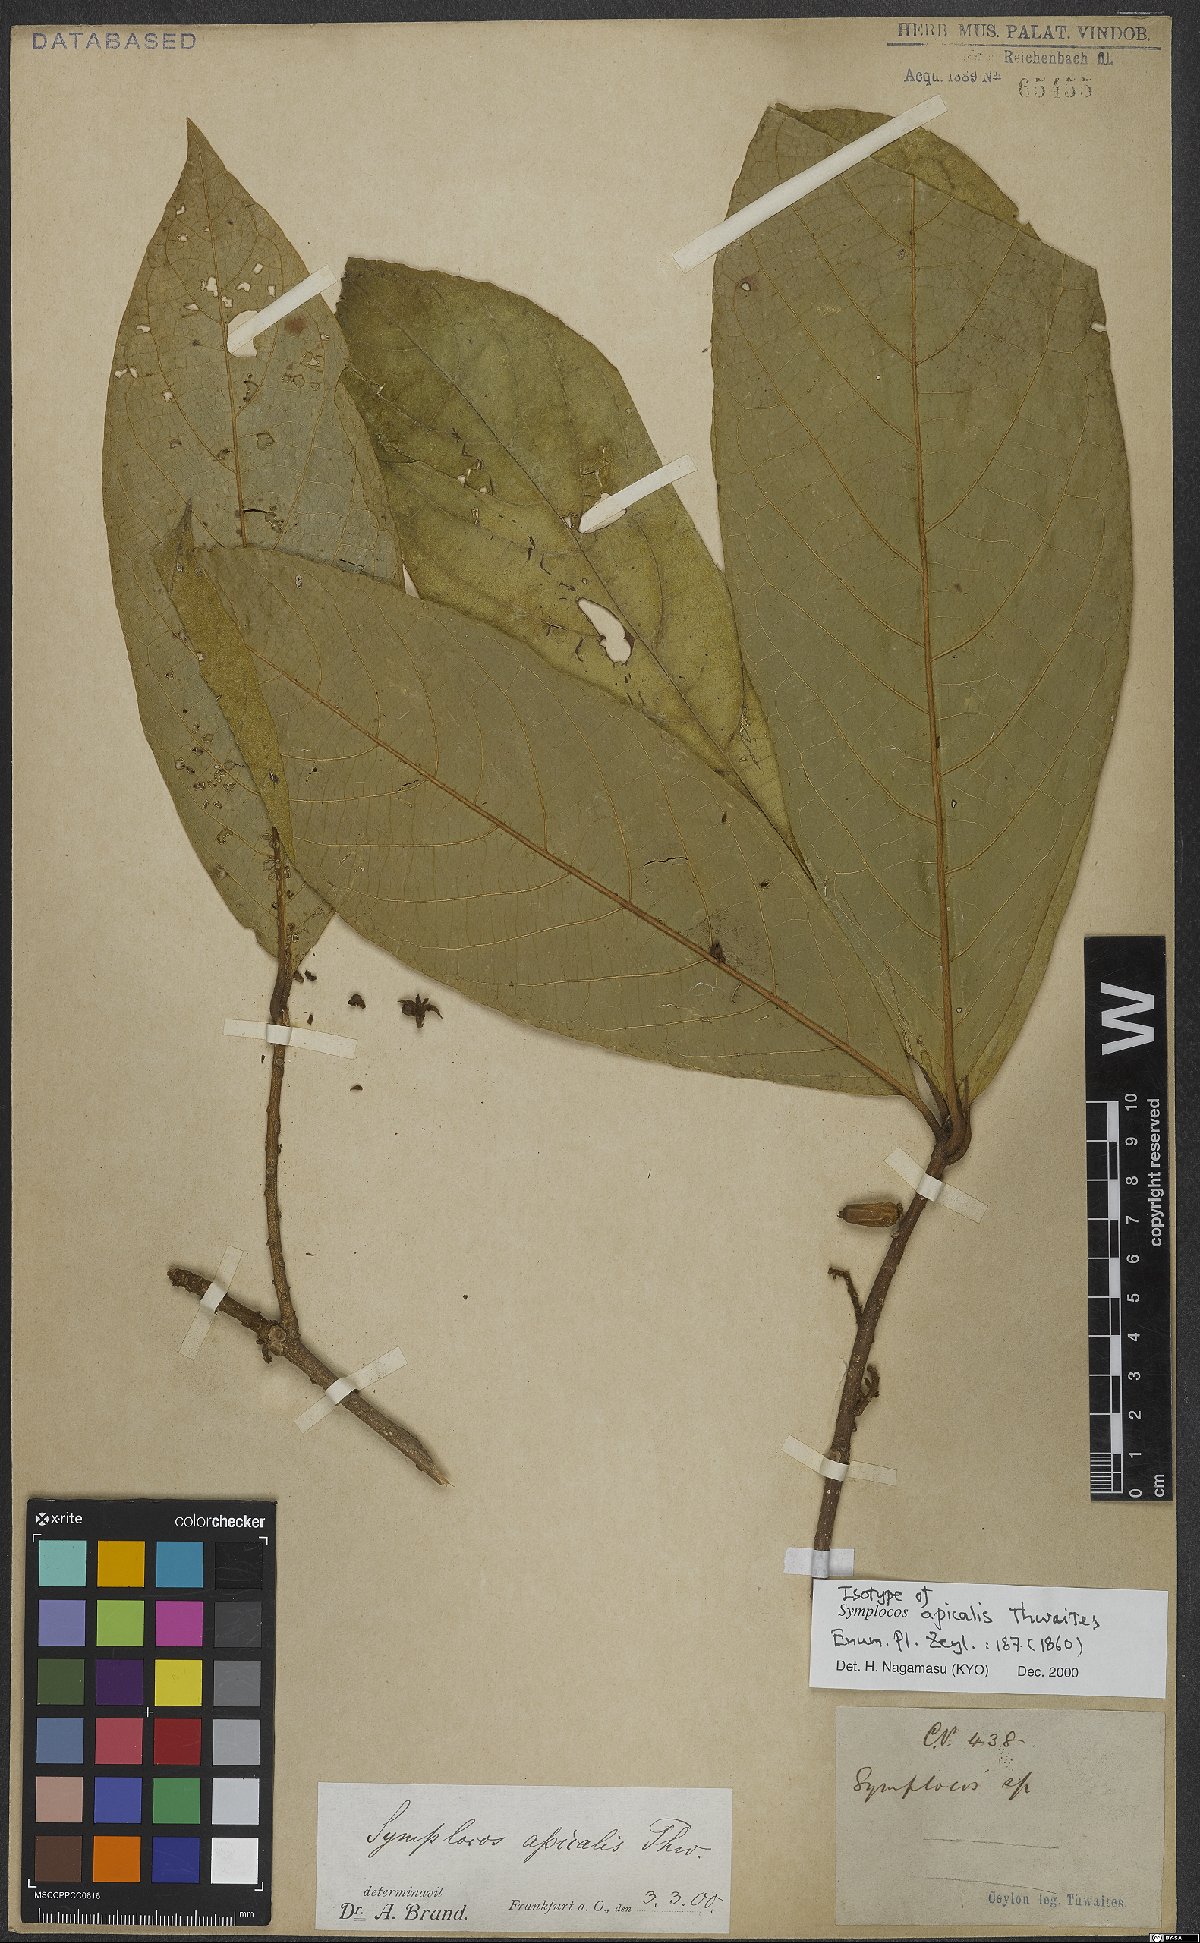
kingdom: Plantae
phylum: Tracheophyta
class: Magnoliopsida
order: Ericales
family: Symplocaceae
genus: Symplocos
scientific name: Symplocos coronata
